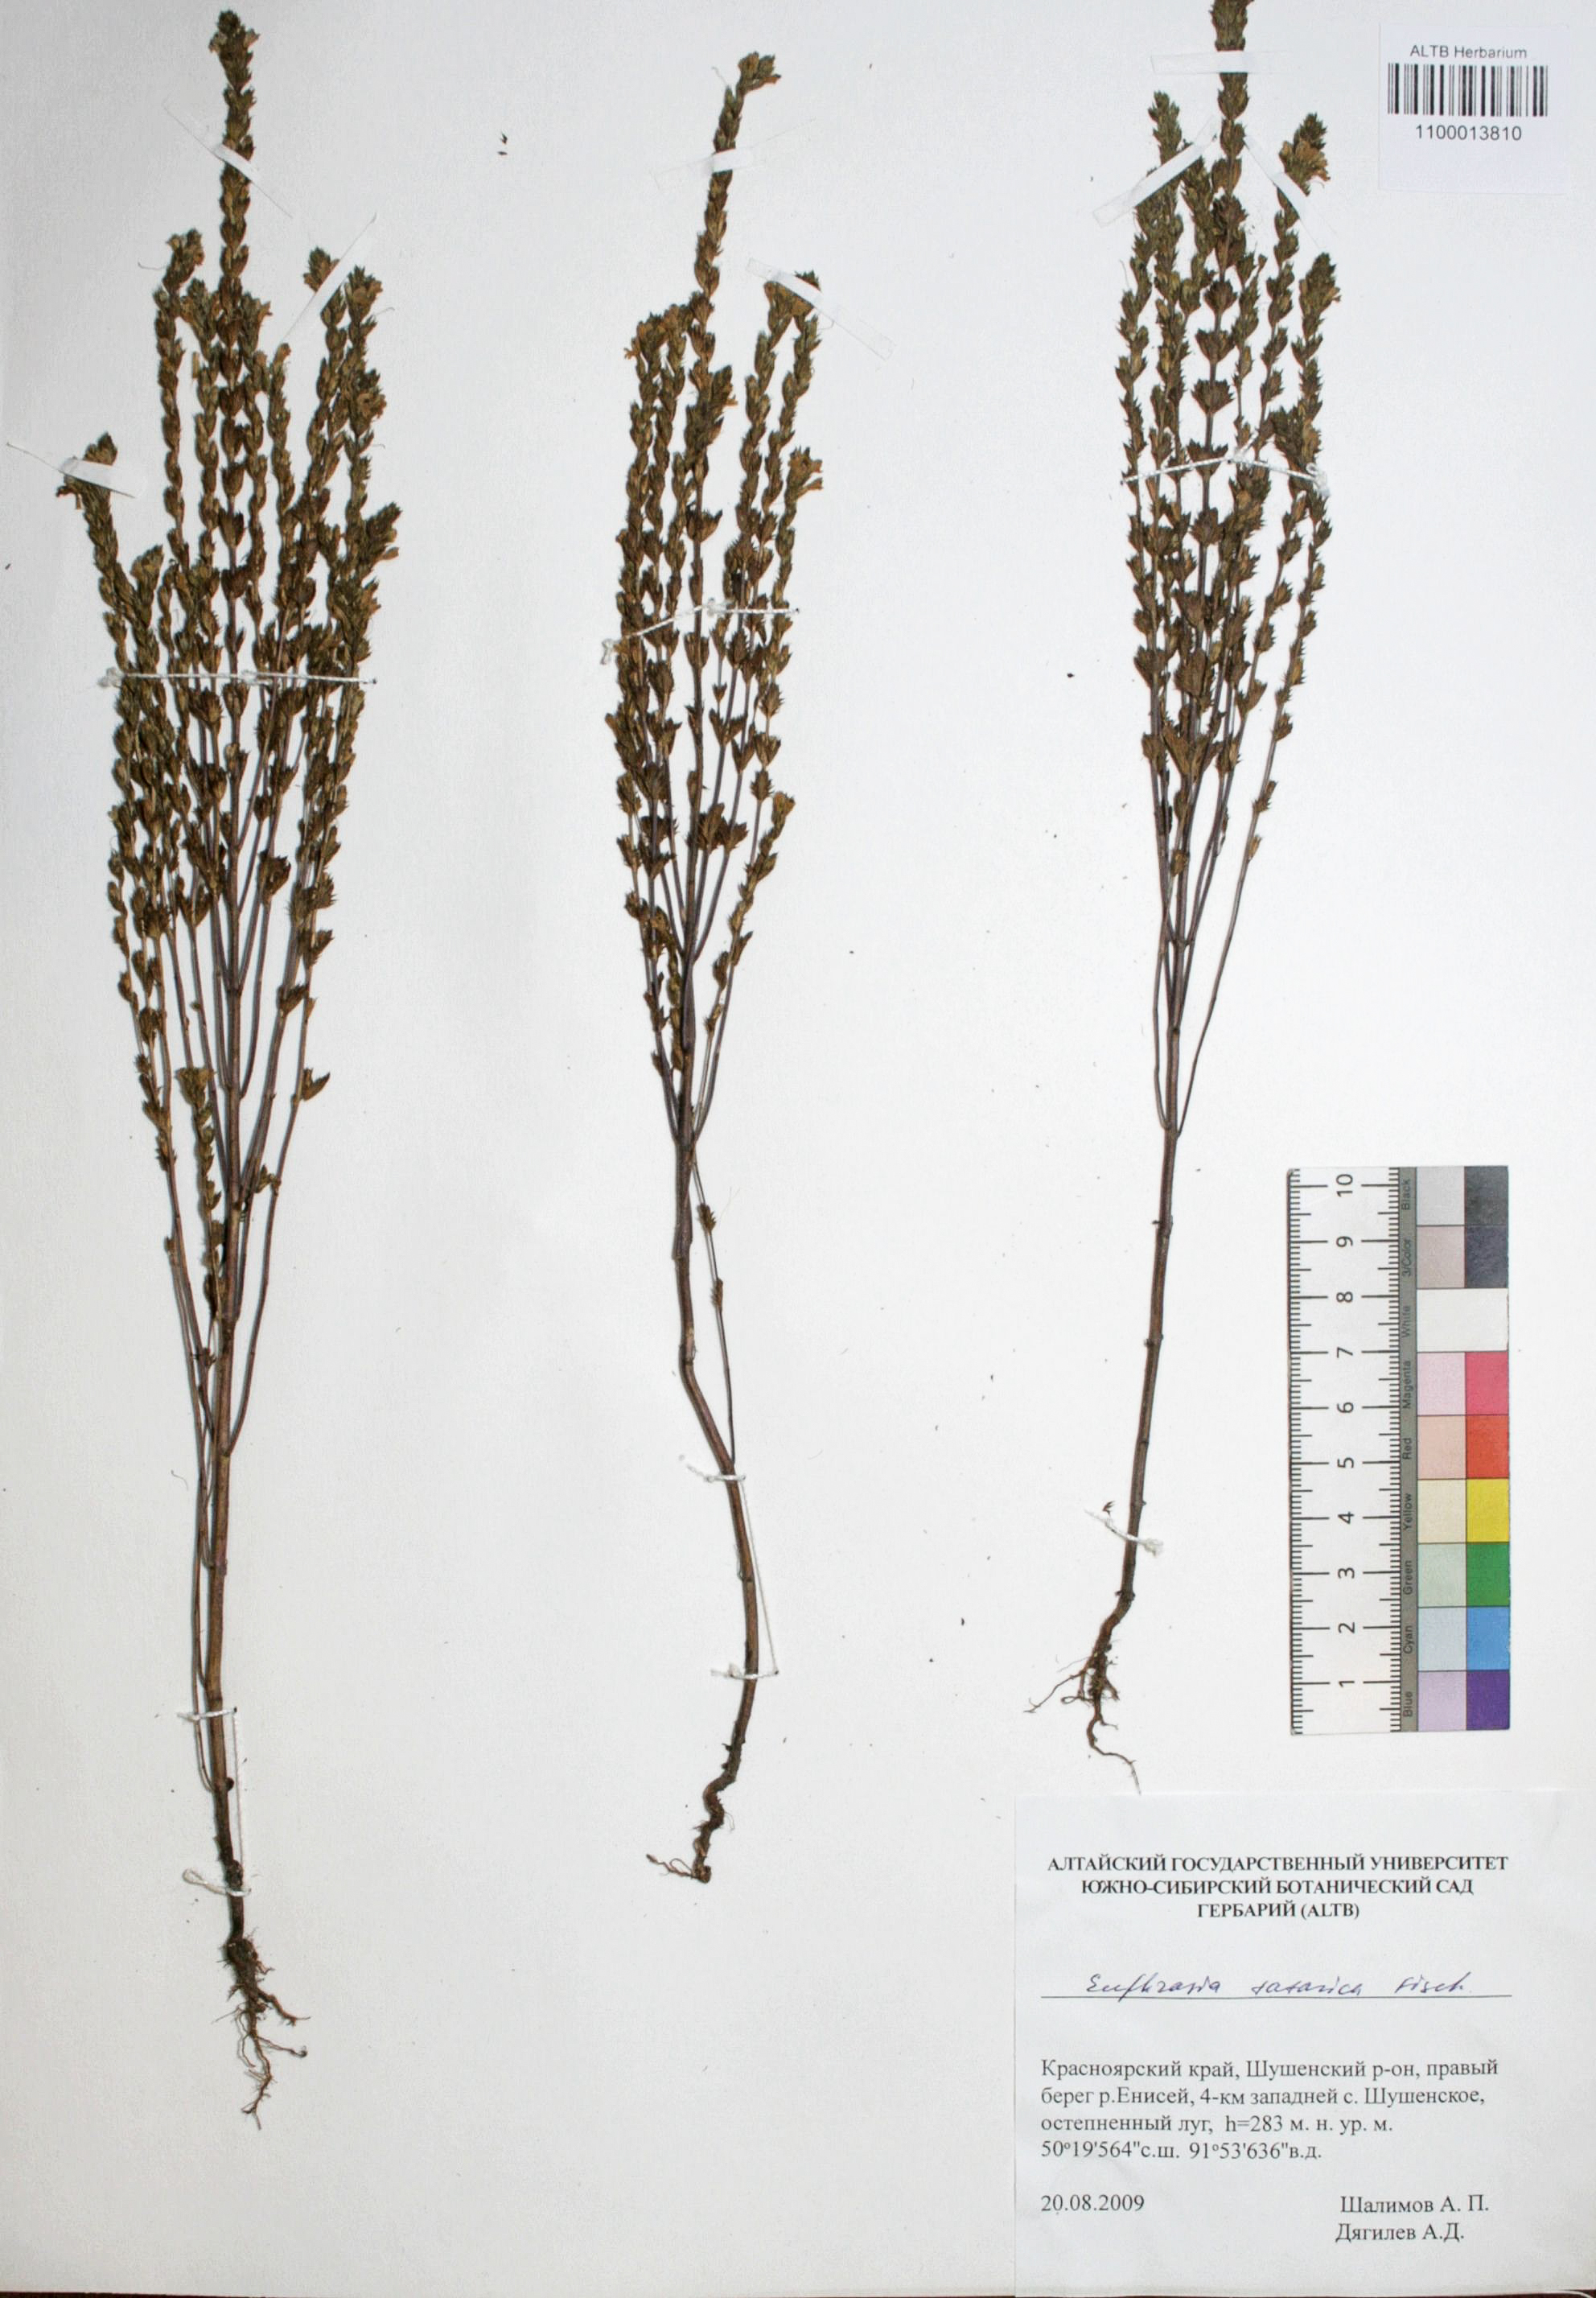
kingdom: Plantae
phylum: Tracheophyta
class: Magnoliopsida
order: Lamiales
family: Orobanchaceae
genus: Euphrasia
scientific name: Euphrasia pectinata
